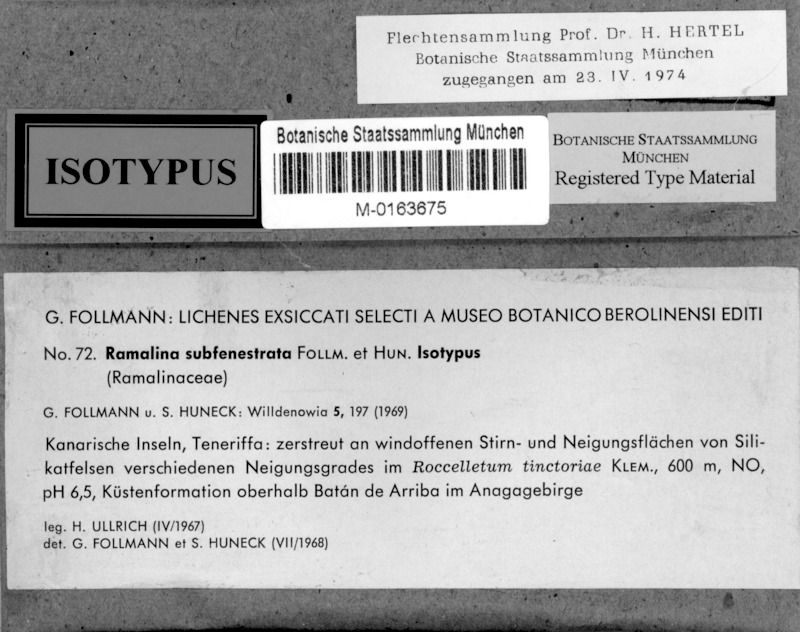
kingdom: Fungi
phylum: Ascomycota
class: Lecanoromycetes
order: Lecanorales
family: Ramalinaceae
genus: Ramalina
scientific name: Ramalina subfenestrata
